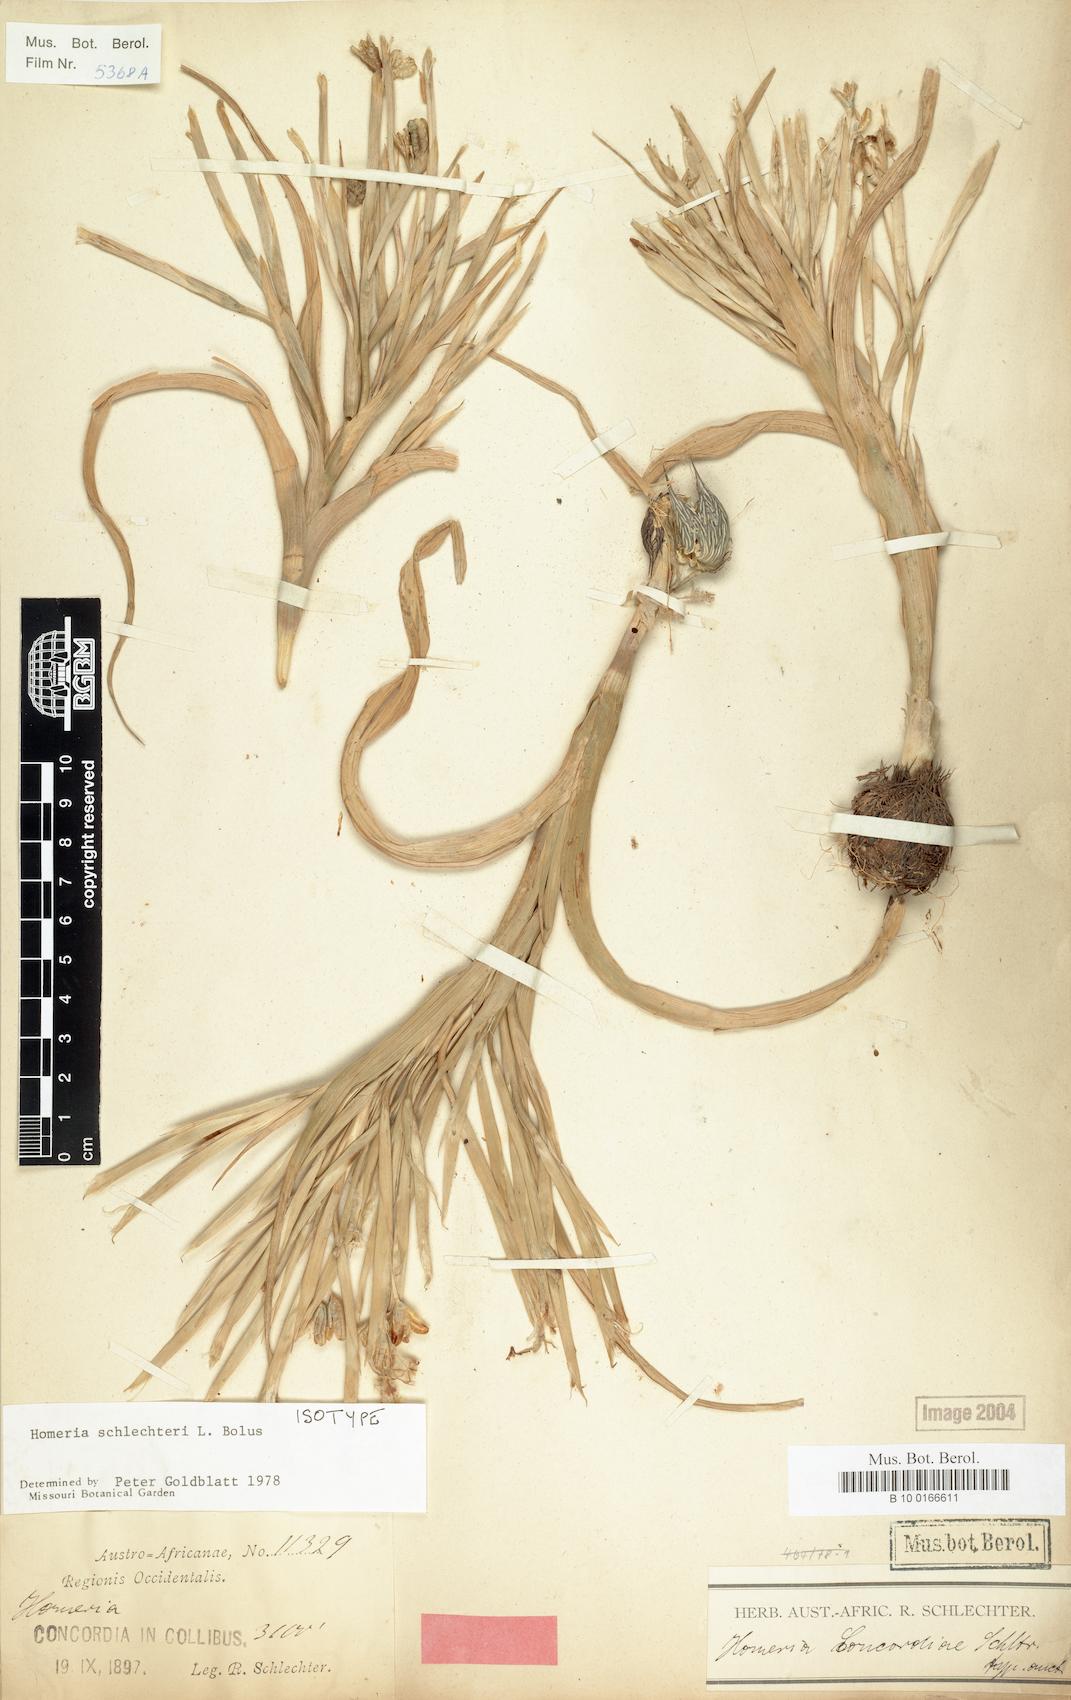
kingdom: Plantae
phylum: Tracheophyta
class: Liliopsida
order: Asparagales
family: Iridaceae
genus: Moraea
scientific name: Moraea schlechteri
